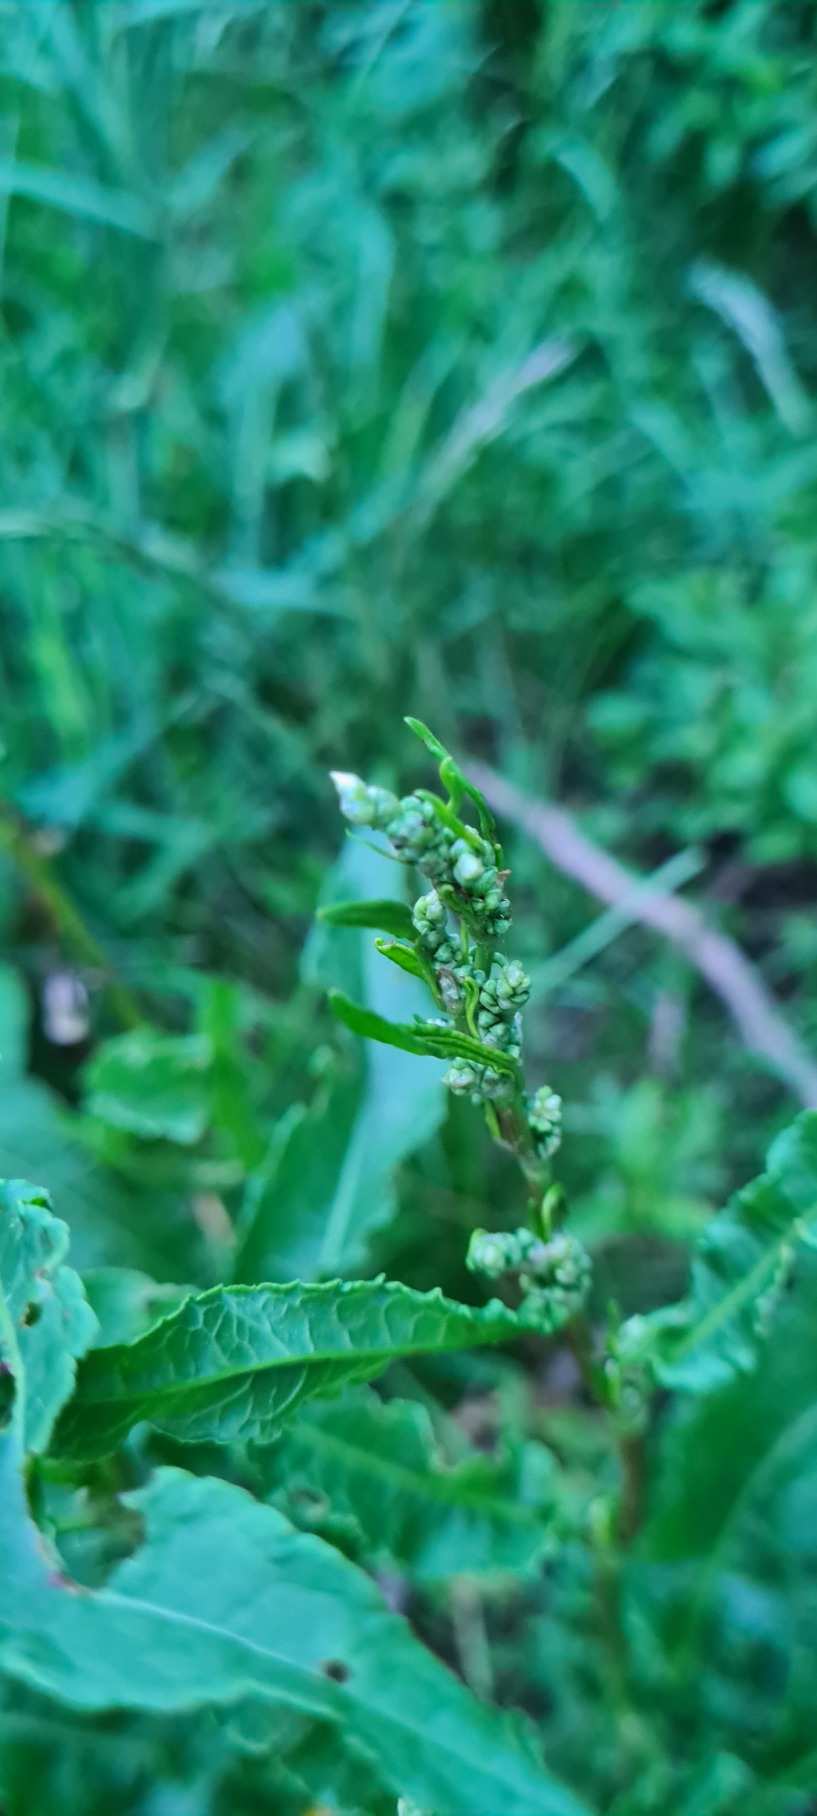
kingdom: Plantae
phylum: Tracheophyta
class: Magnoliopsida
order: Caryophyllales
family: Polygonaceae
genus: Rumex
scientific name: Rumex crispus
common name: Kruset skræppe
